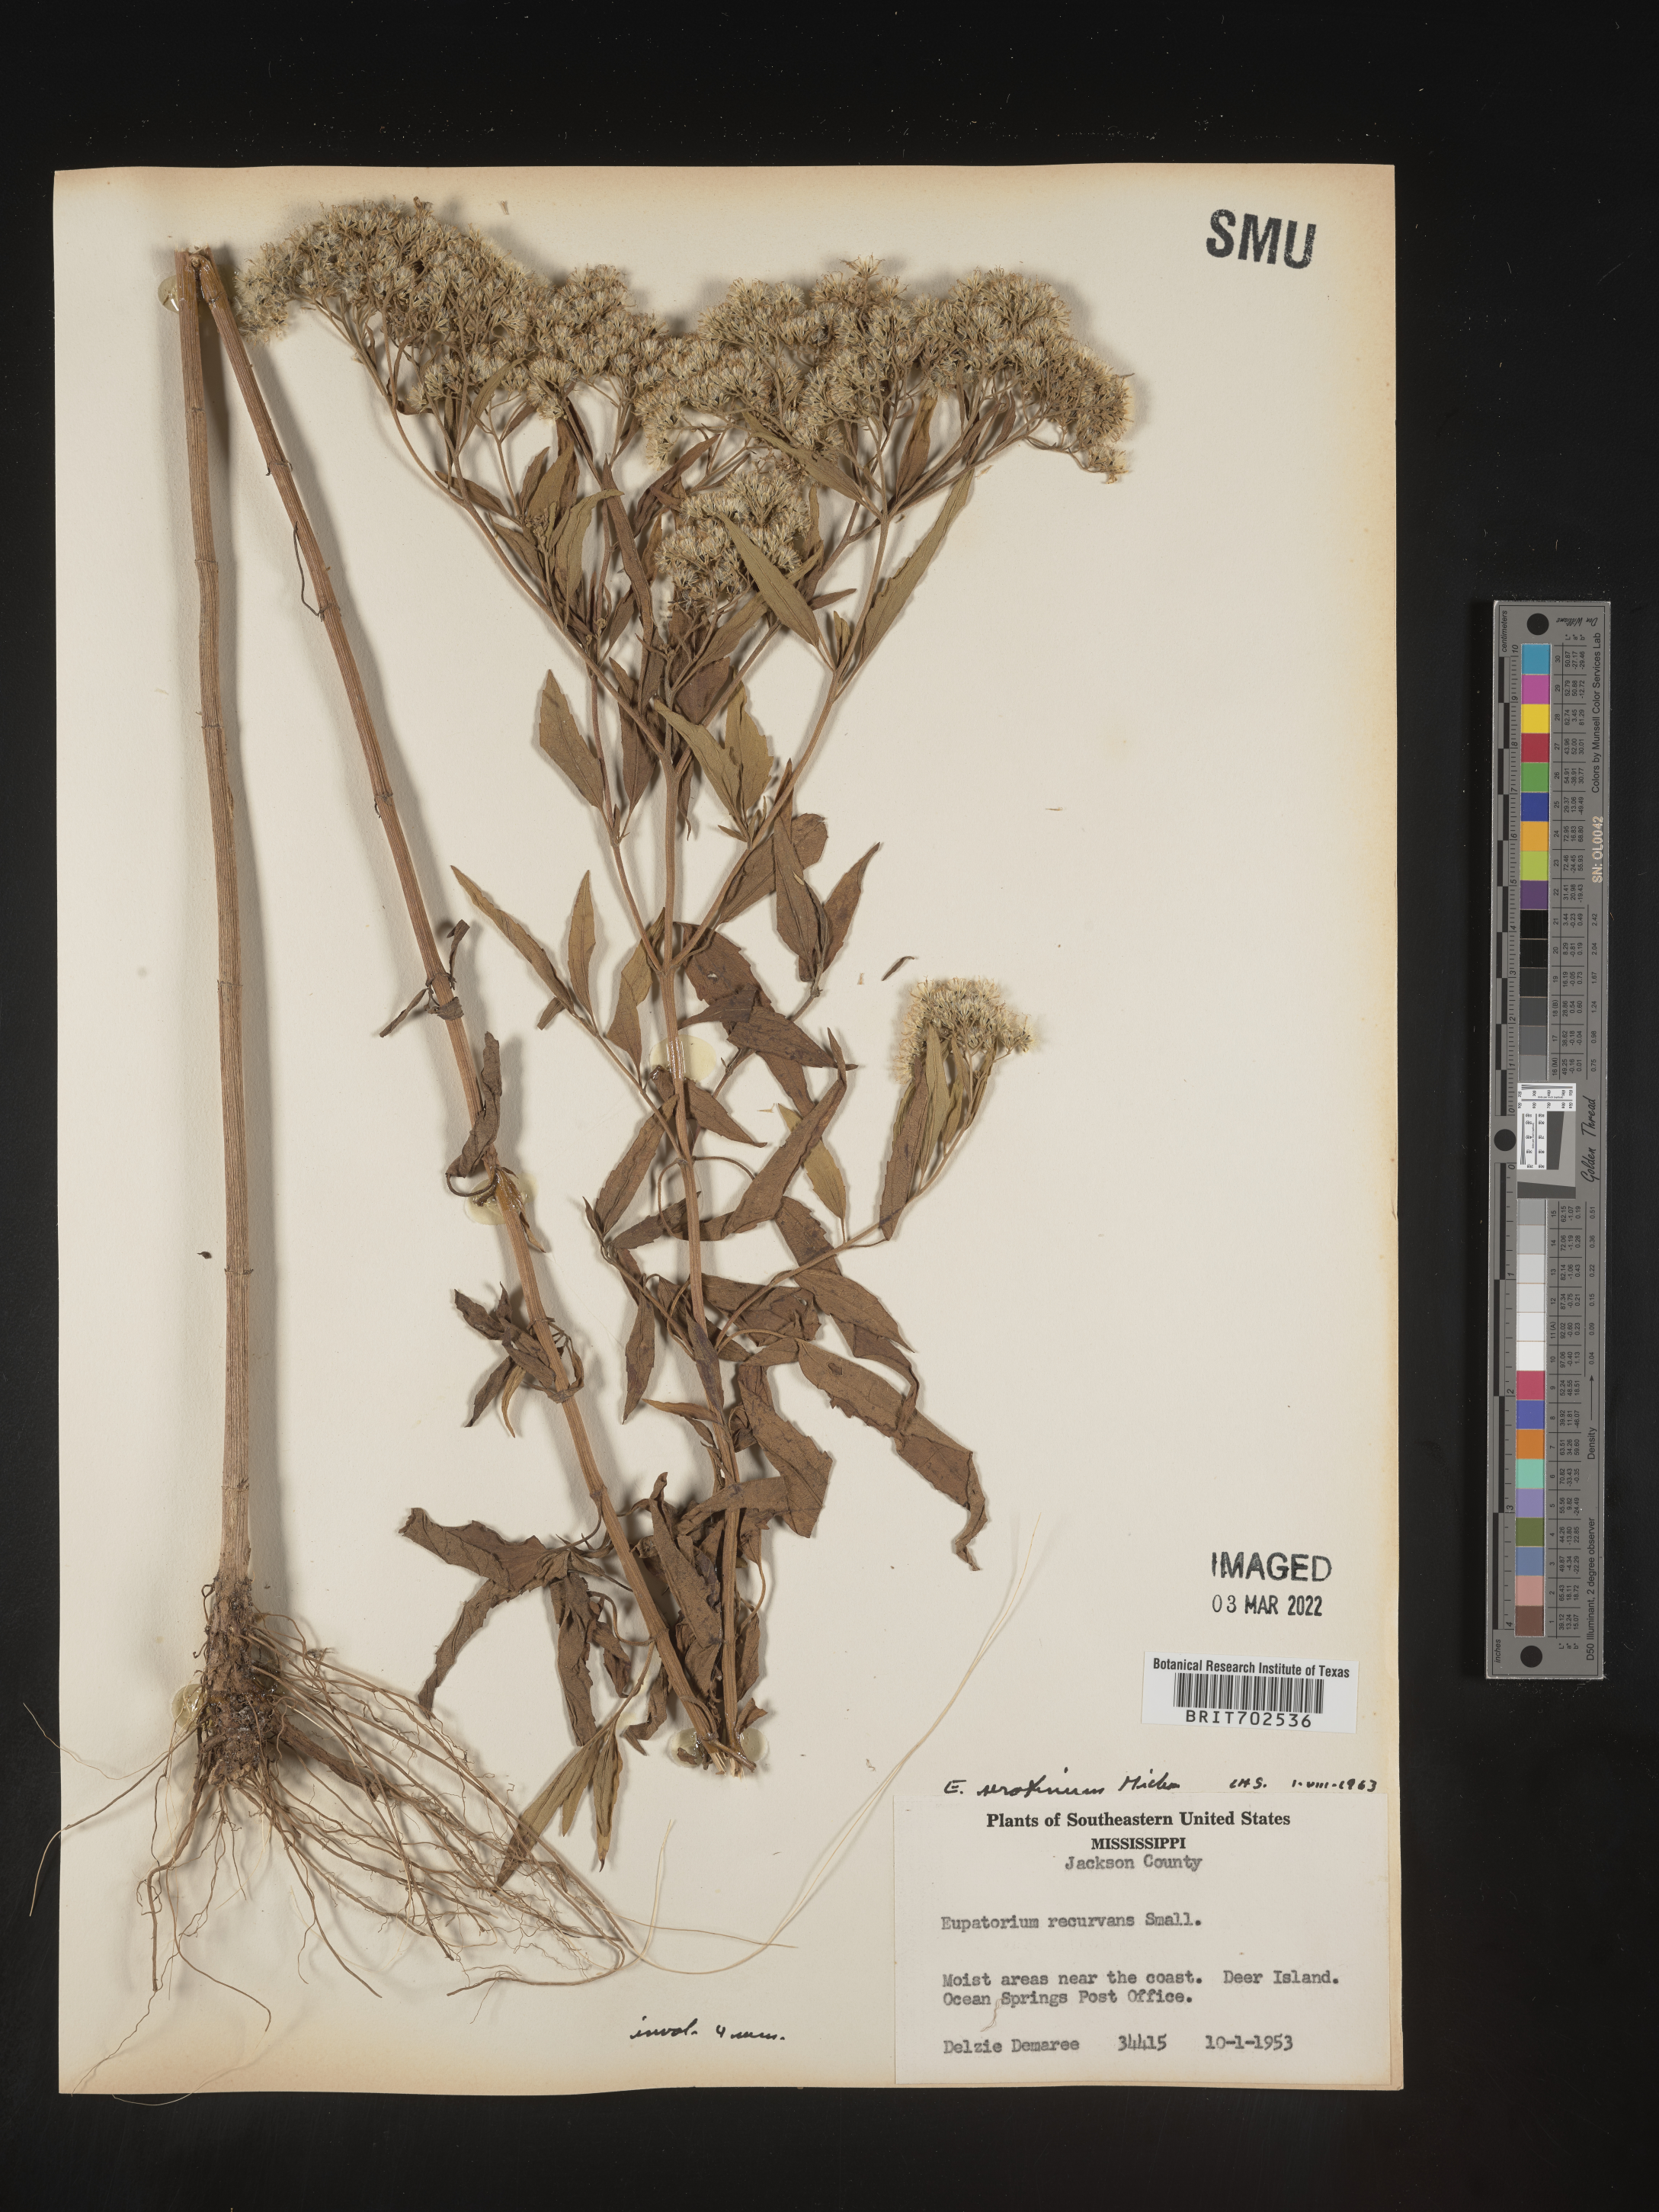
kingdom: Plantae
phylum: Tracheophyta
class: Magnoliopsida
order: Asterales
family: Asteraceae
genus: Eupatorium
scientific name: Eupatorium serotinum
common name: Late boneset
